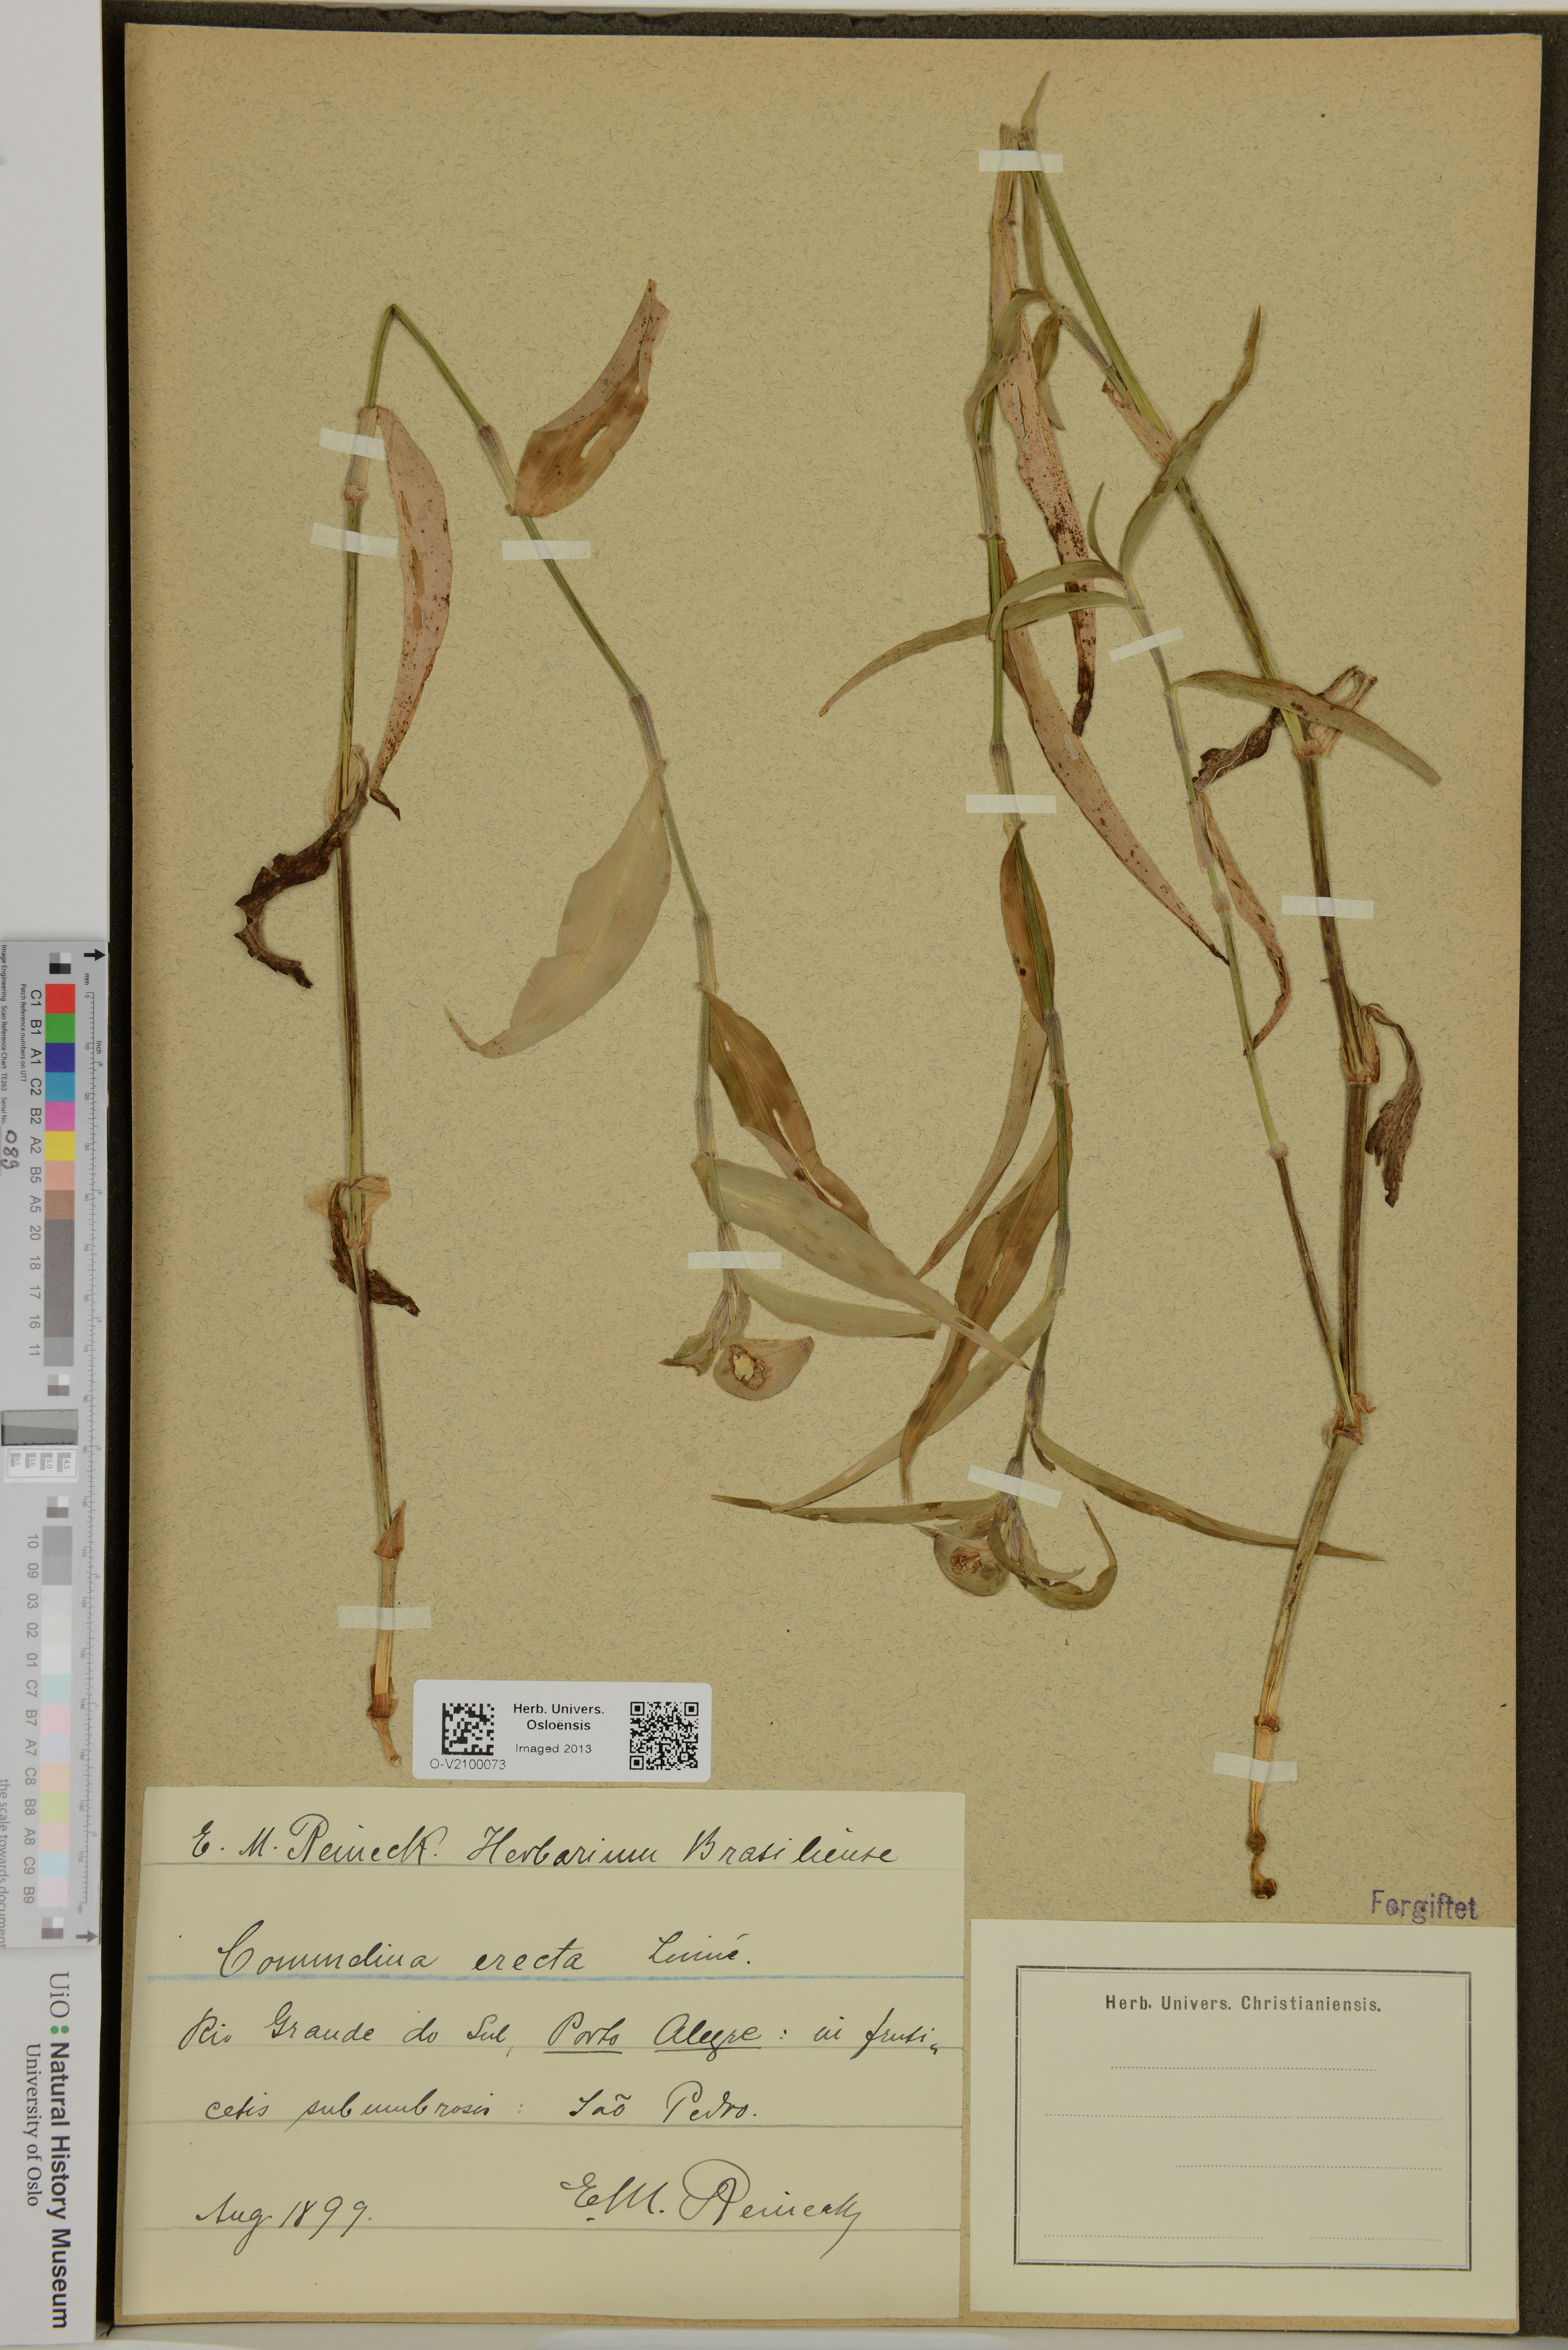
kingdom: Plantae
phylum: Tracheophyta
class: Liliopsida
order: Commelinales
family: Commelinaceae
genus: Commelina
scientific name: Commelina erecta
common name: Blousel blommetjie
